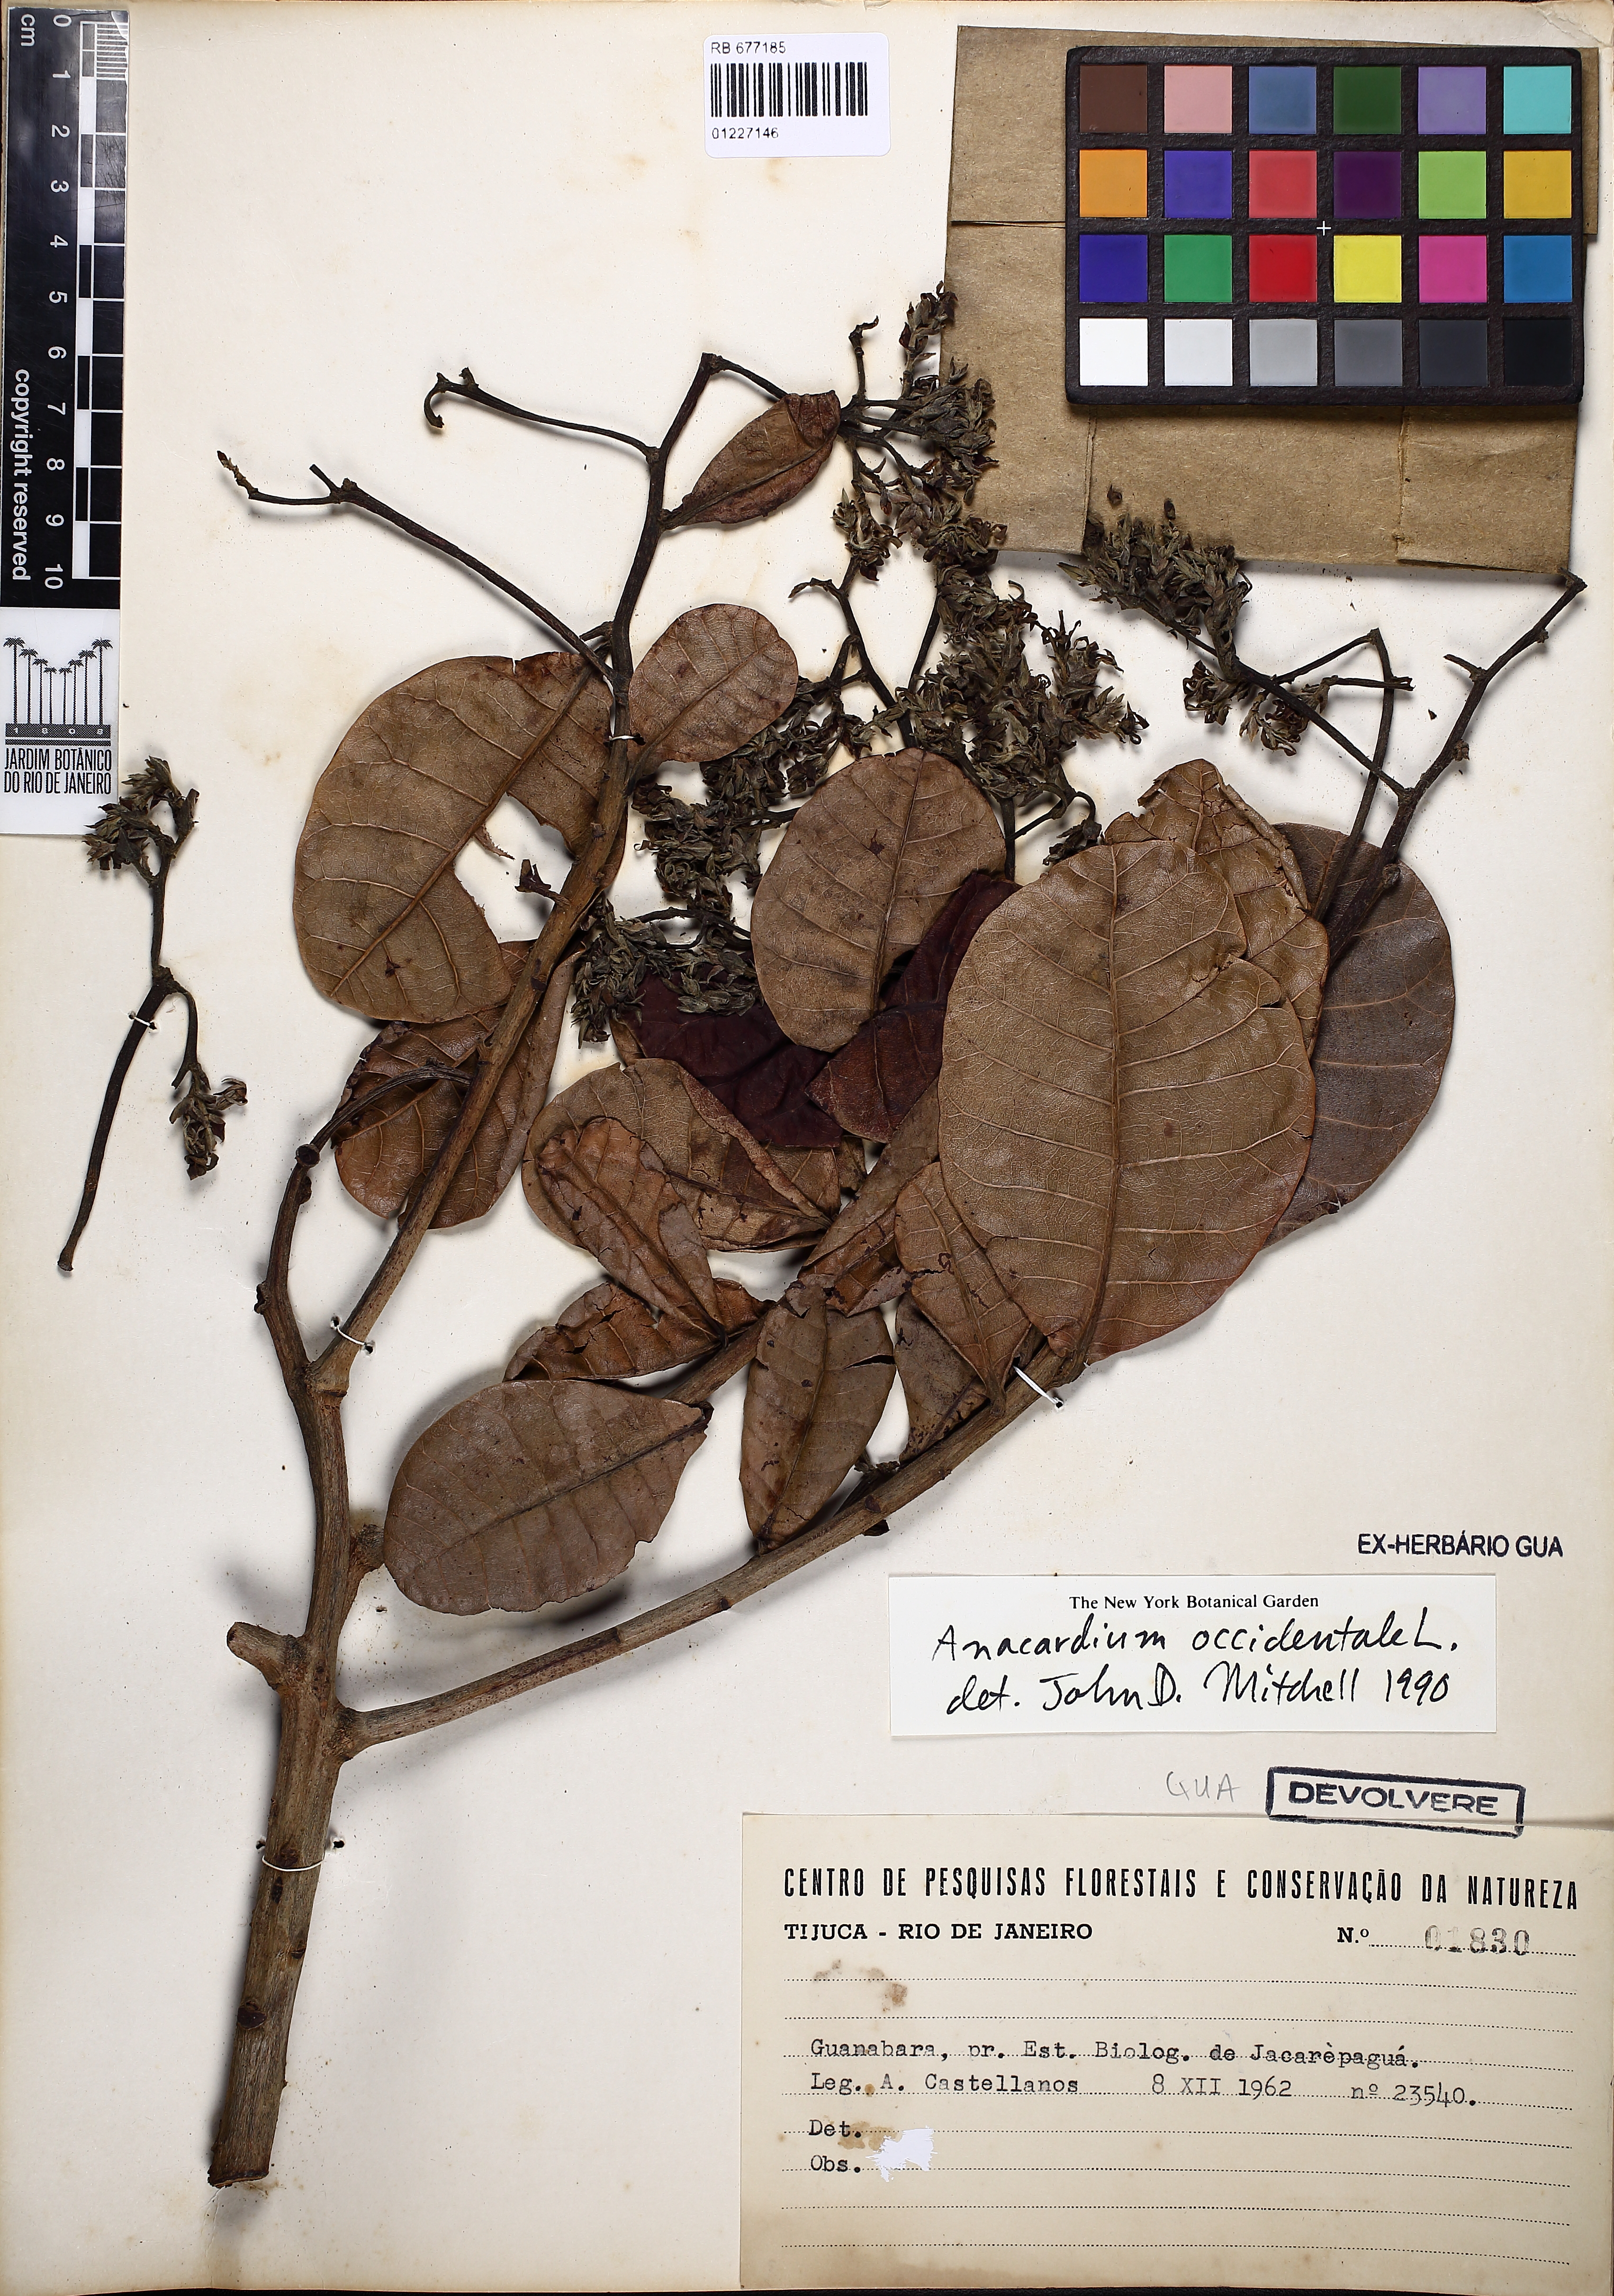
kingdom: Plantae
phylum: Tracheophyta
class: Magnoliopsida
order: Sapindales
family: Anacardiaceae
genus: Anacardium
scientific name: Anacardium occidentale
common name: Cashew
